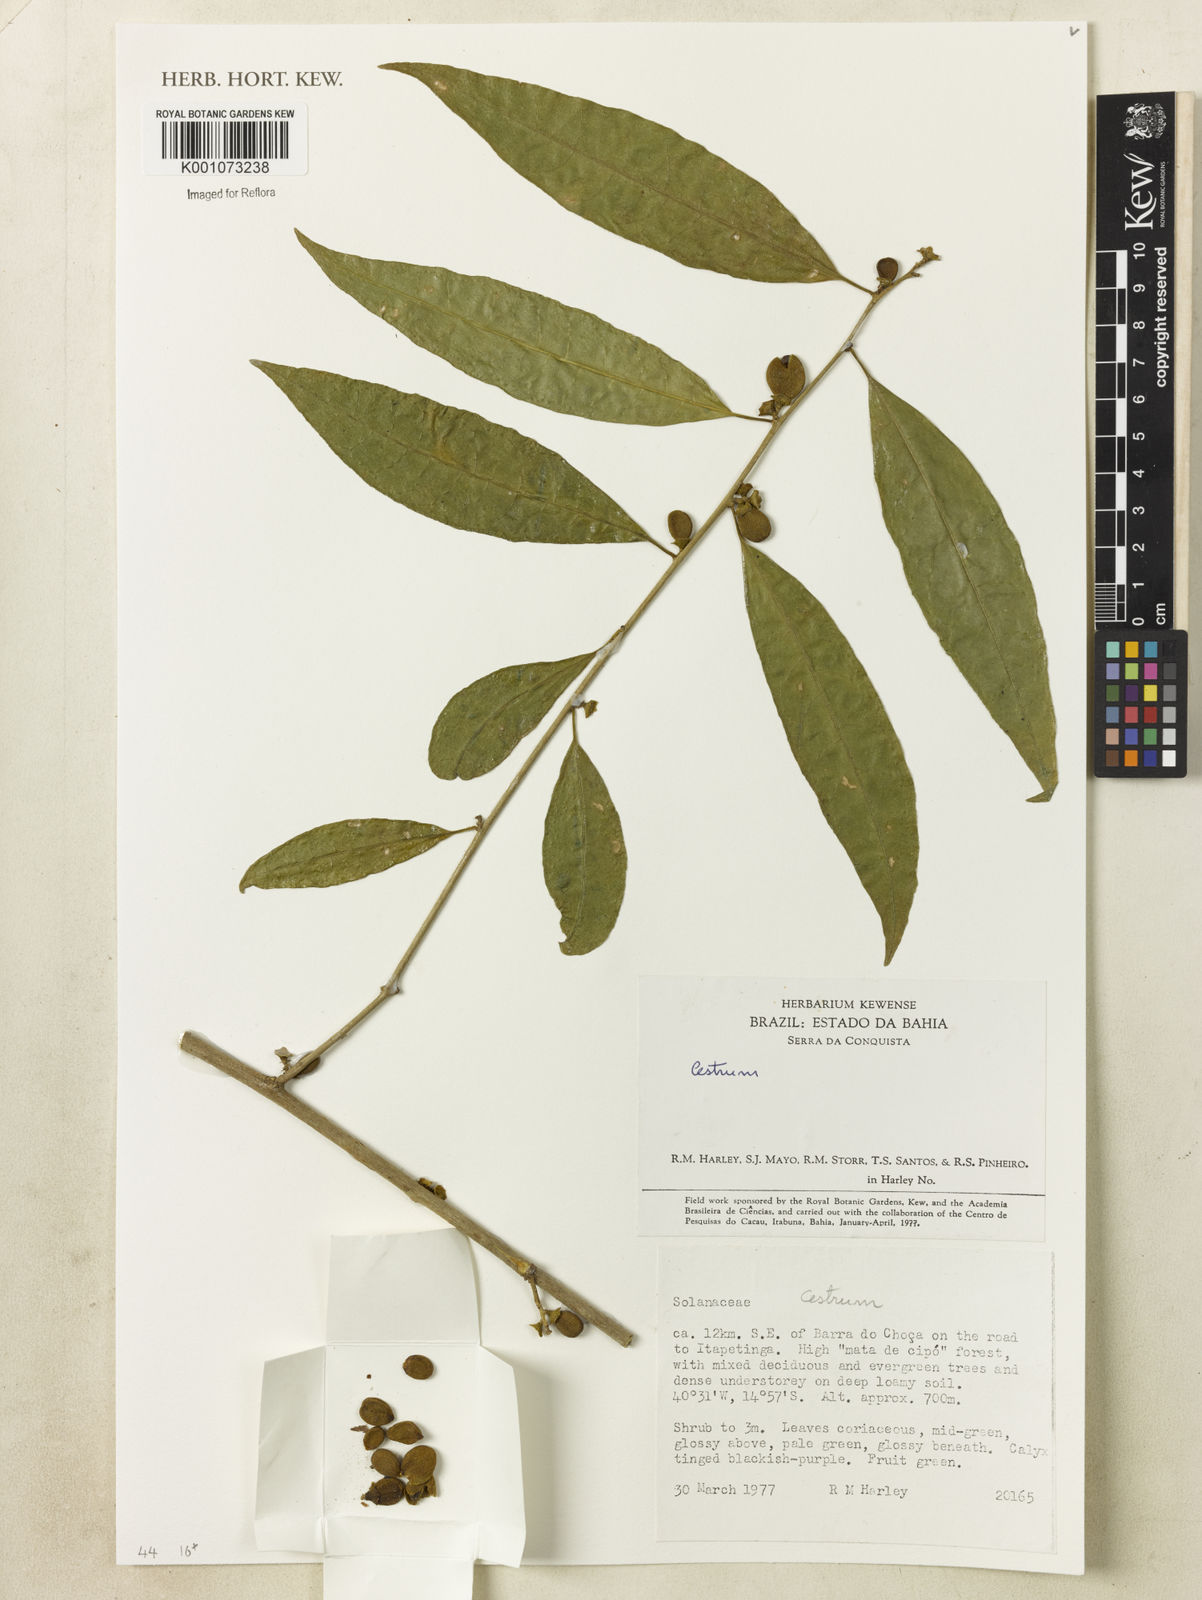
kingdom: Plantae
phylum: Tracheophyta
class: Magnoliopsida
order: Solanales
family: Solanaceae
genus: Cestrum
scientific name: Cestrum
